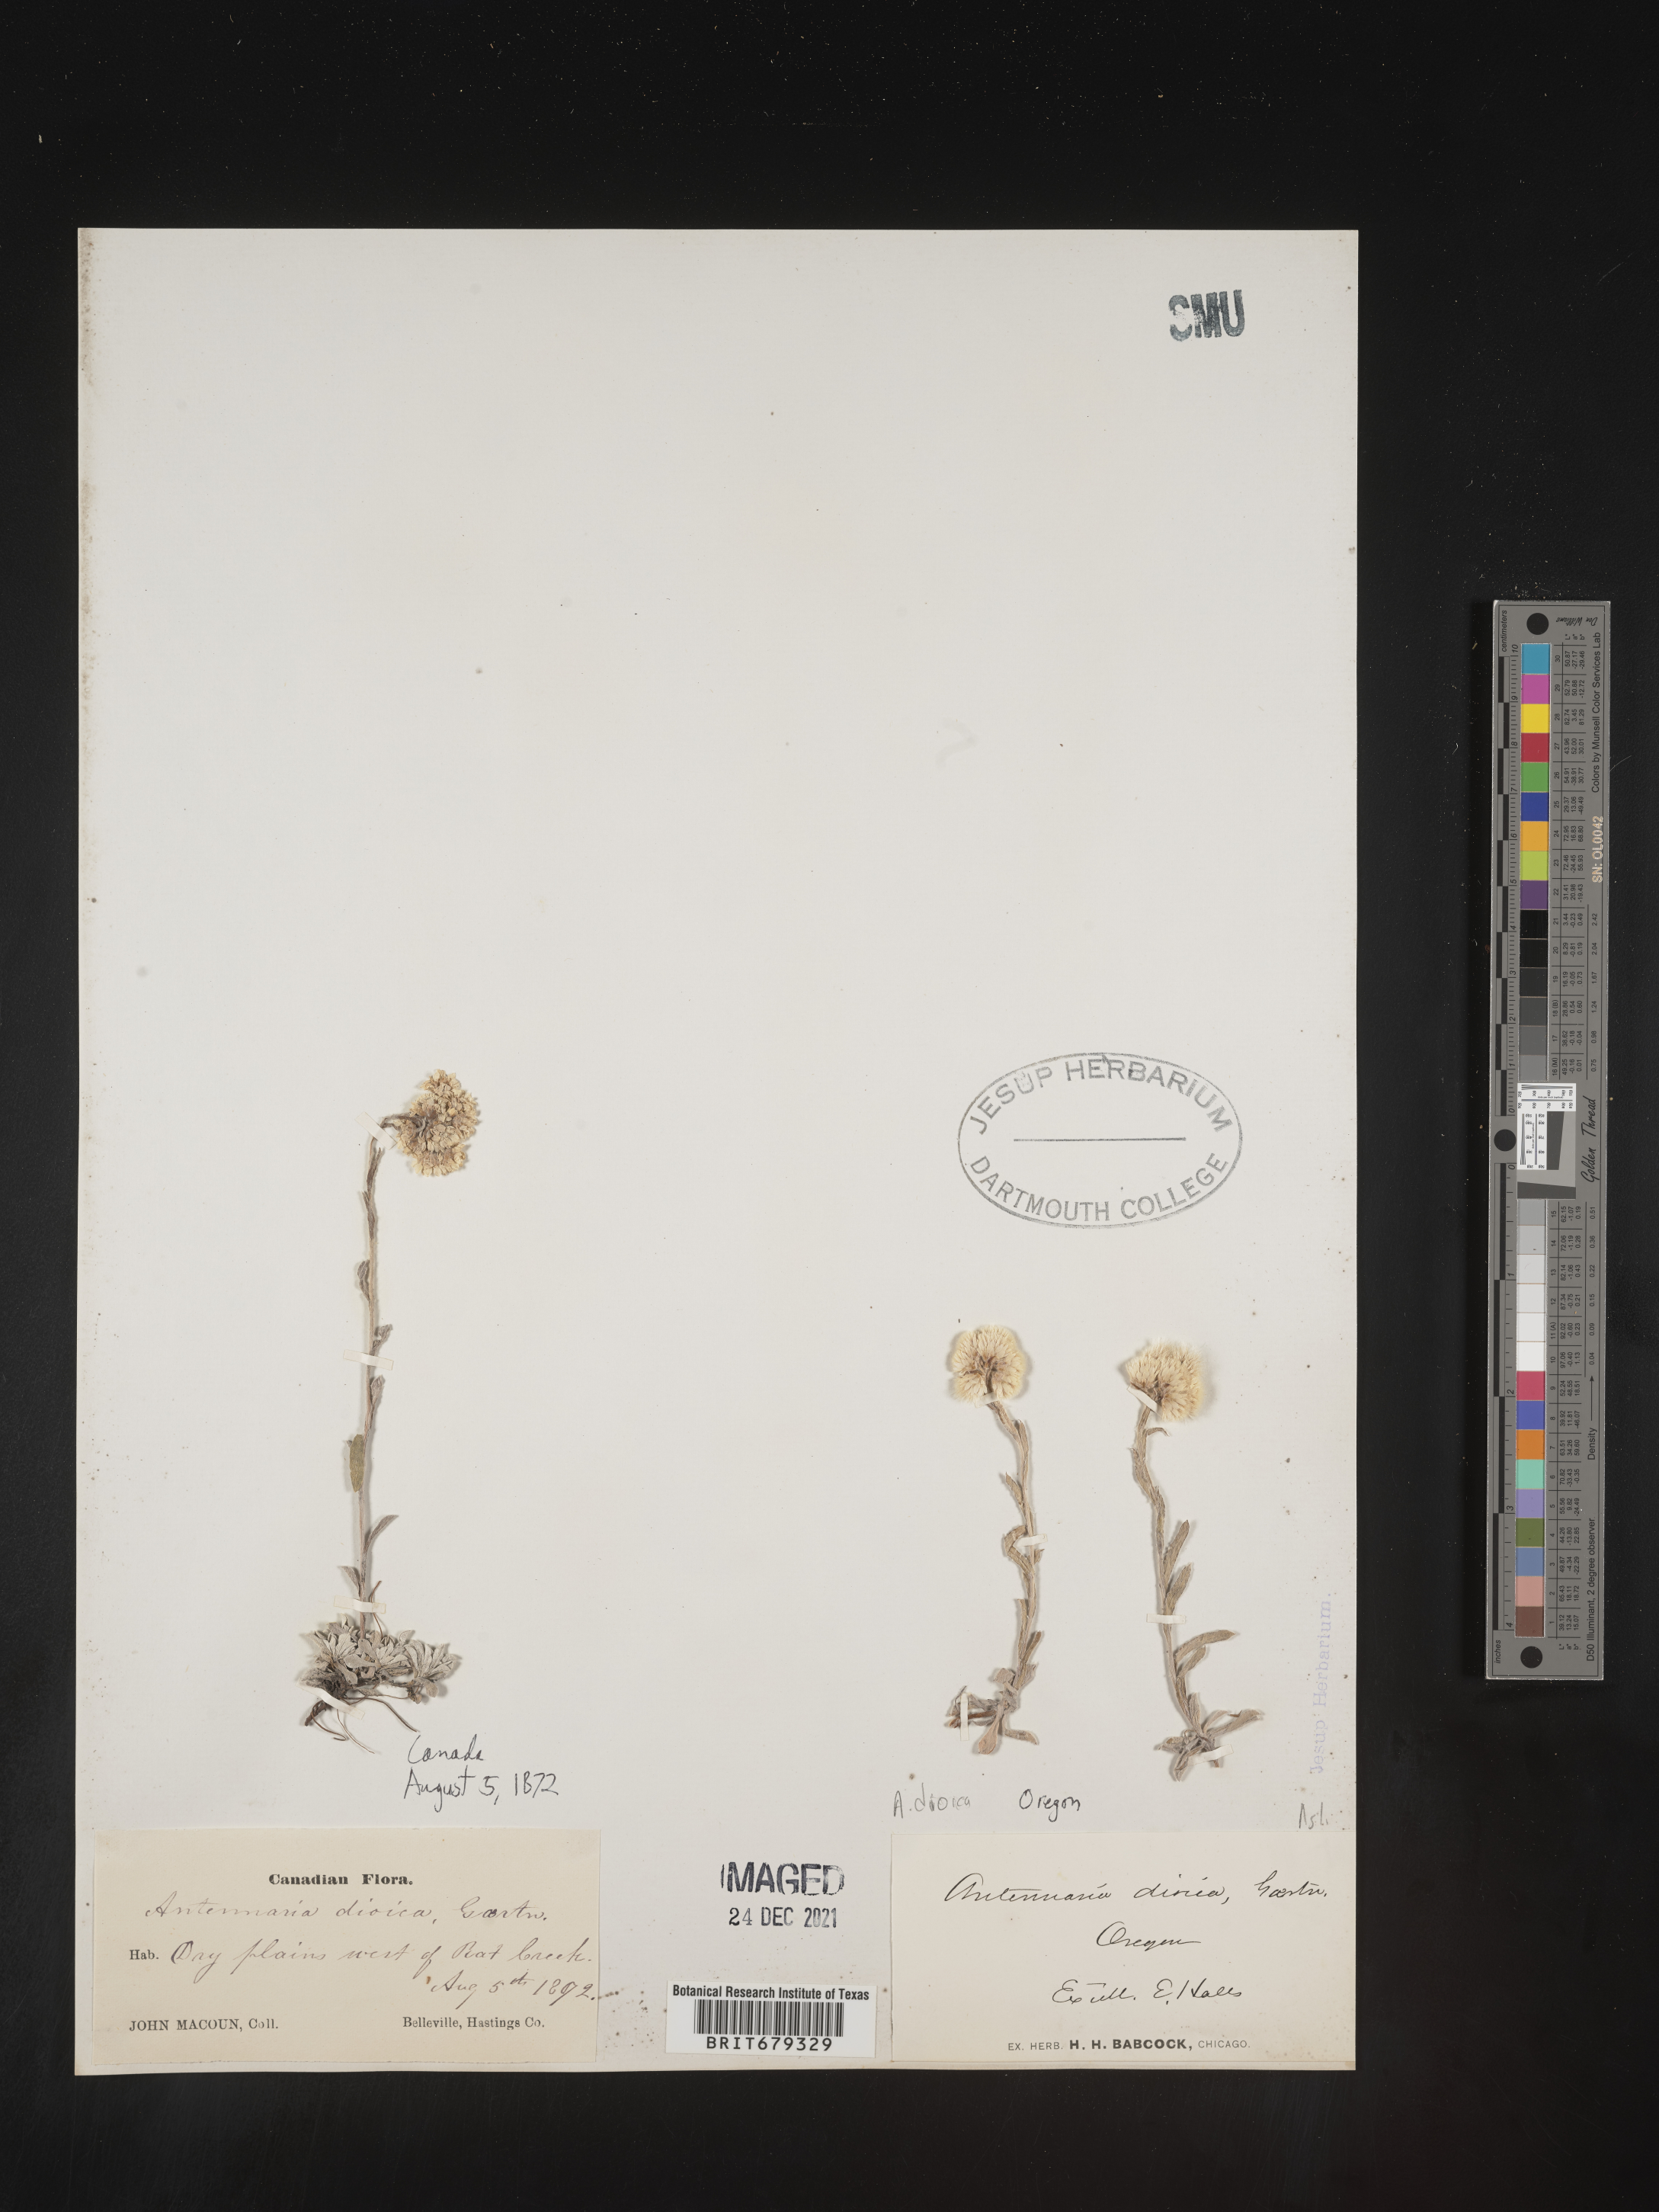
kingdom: Plantae
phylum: Tracheophyta
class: Magnoliopsida
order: Asterales
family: Asteraceae
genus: Antennaria
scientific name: Antennaria dioica
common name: Mountain everlasting
